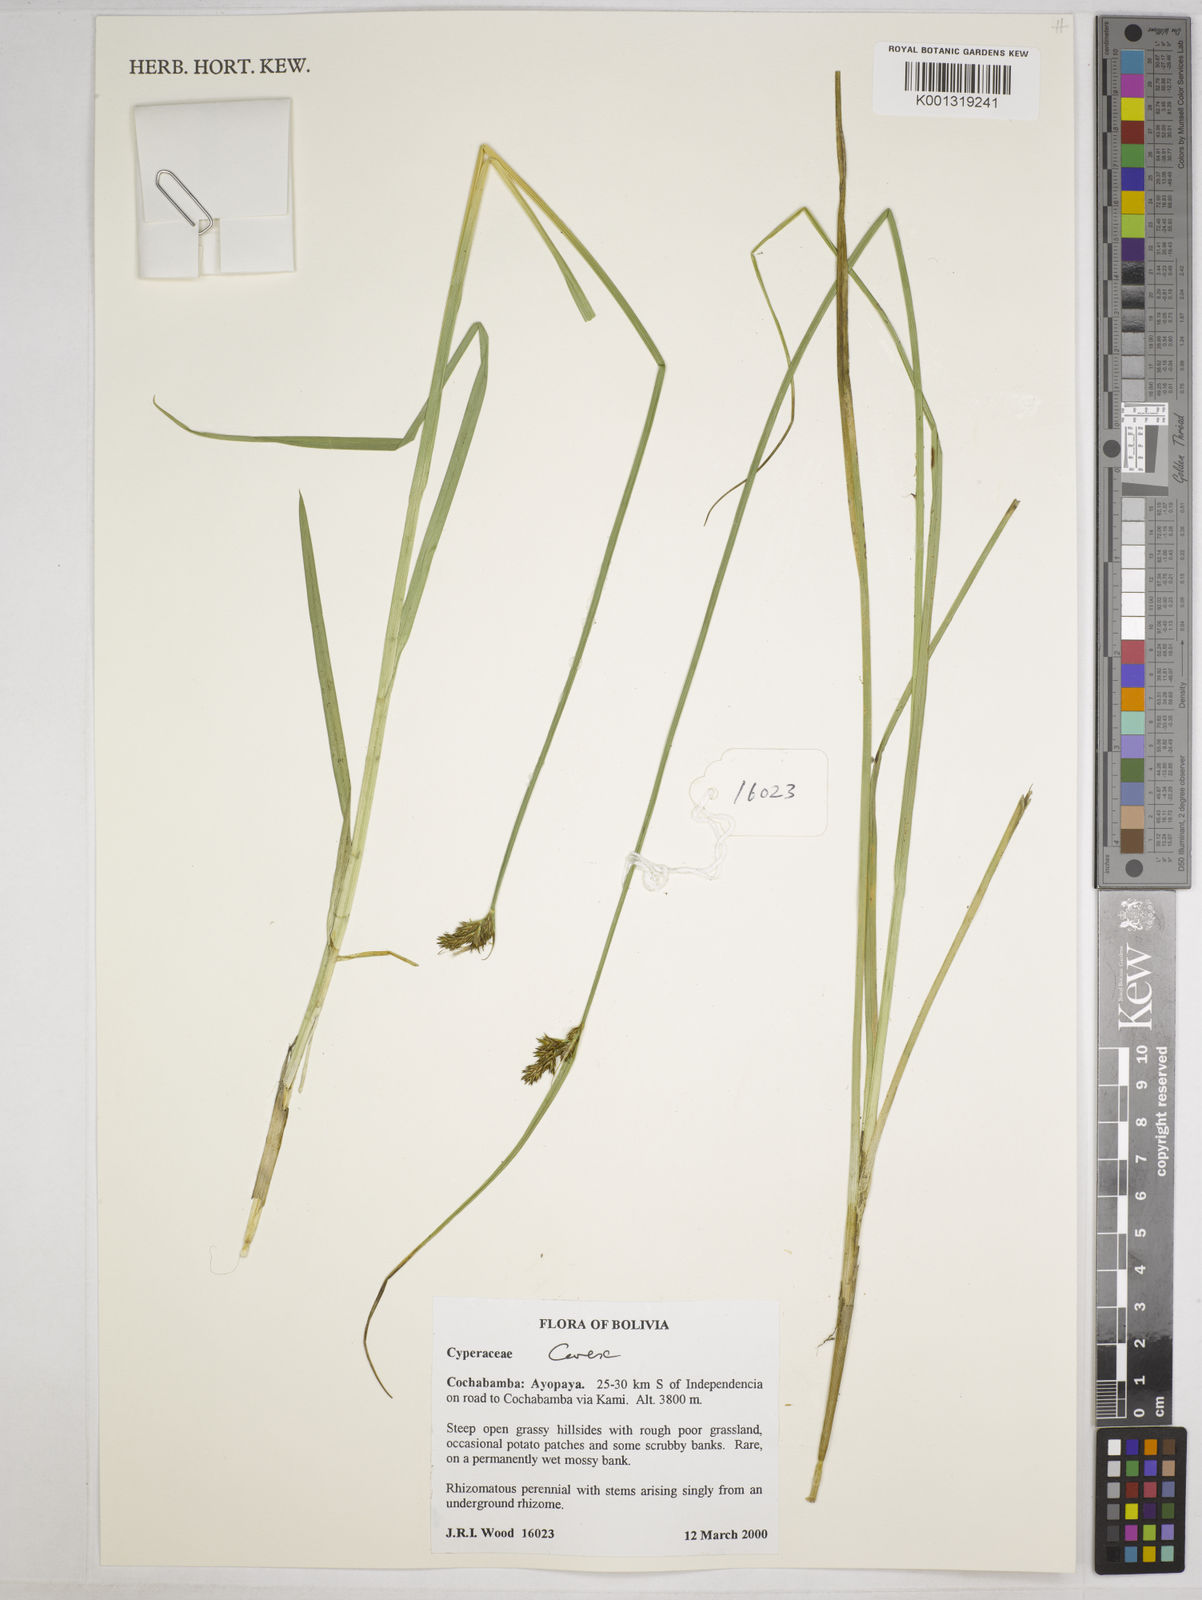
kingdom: Plantae
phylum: Tracheophyta
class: Liliopsida
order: Poales
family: Cyperaceae
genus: Carex
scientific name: Carex bonplandii
